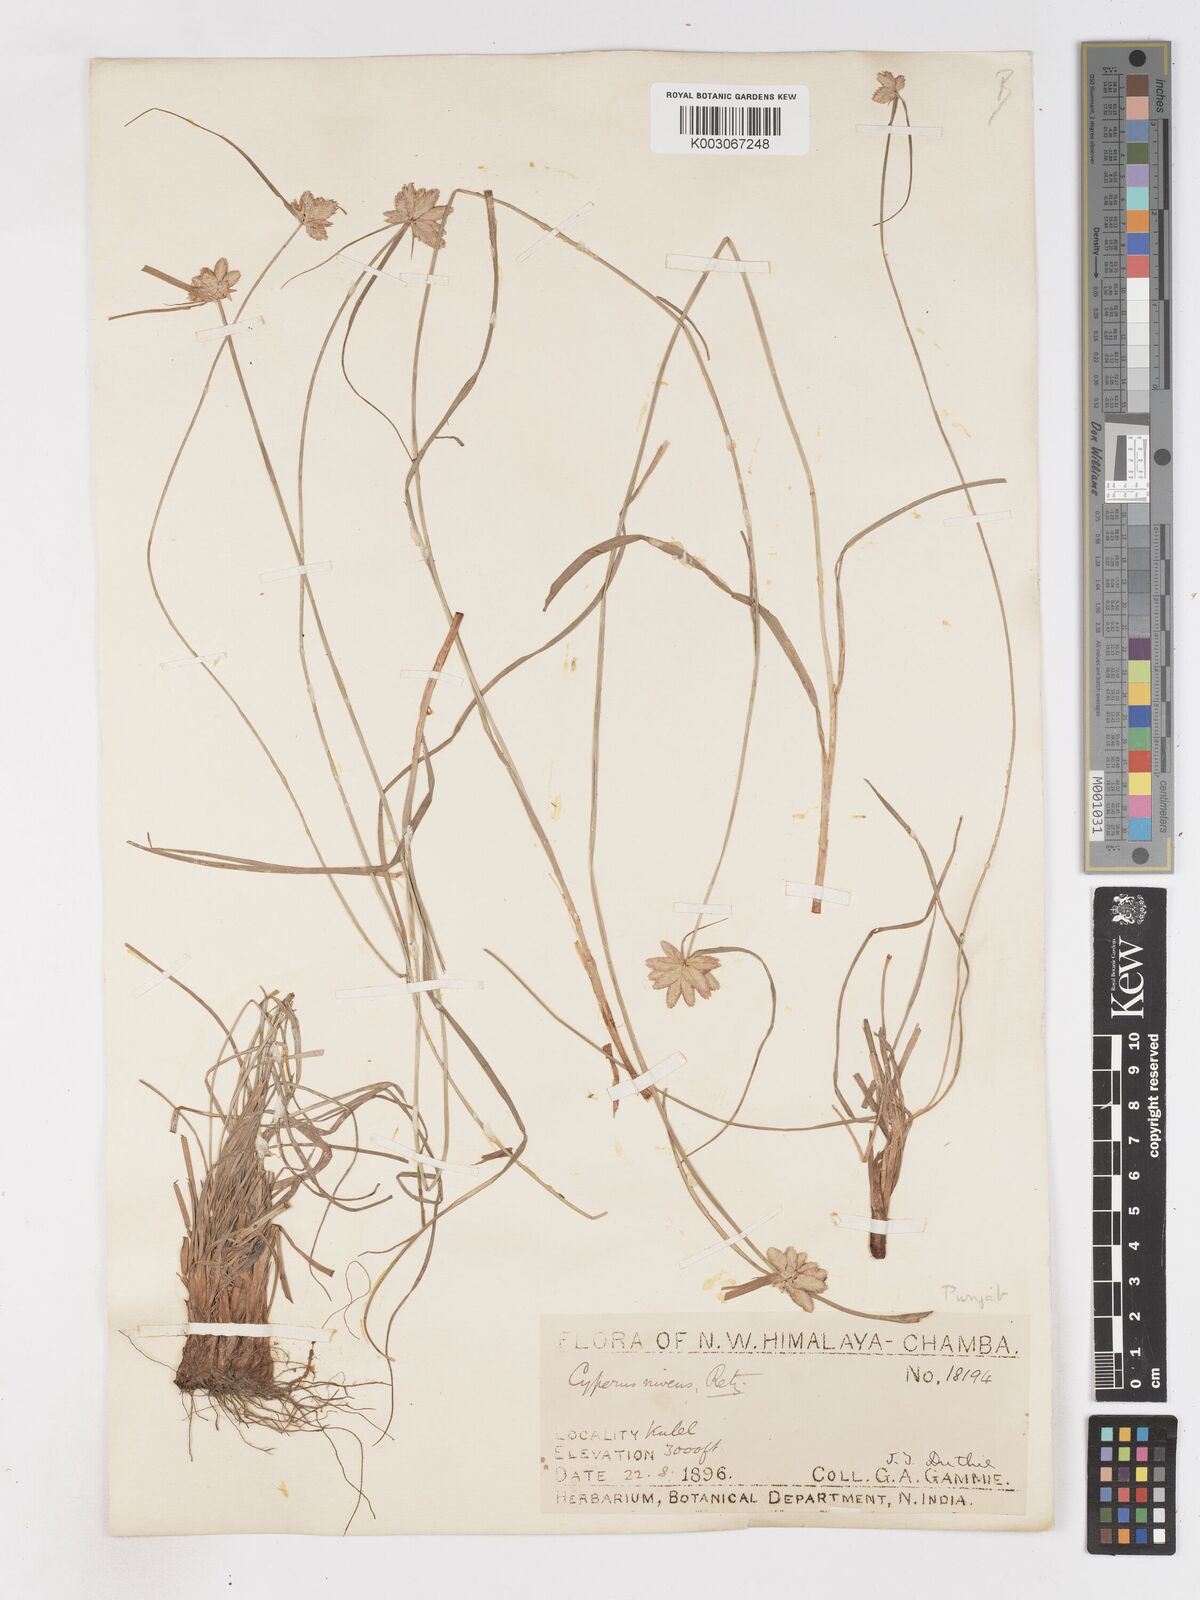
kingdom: Plantae
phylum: Tracheophyta
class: Liliopsida
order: Poales
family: Cyperaceae
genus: Cyperus
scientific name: Cyperus niveus
